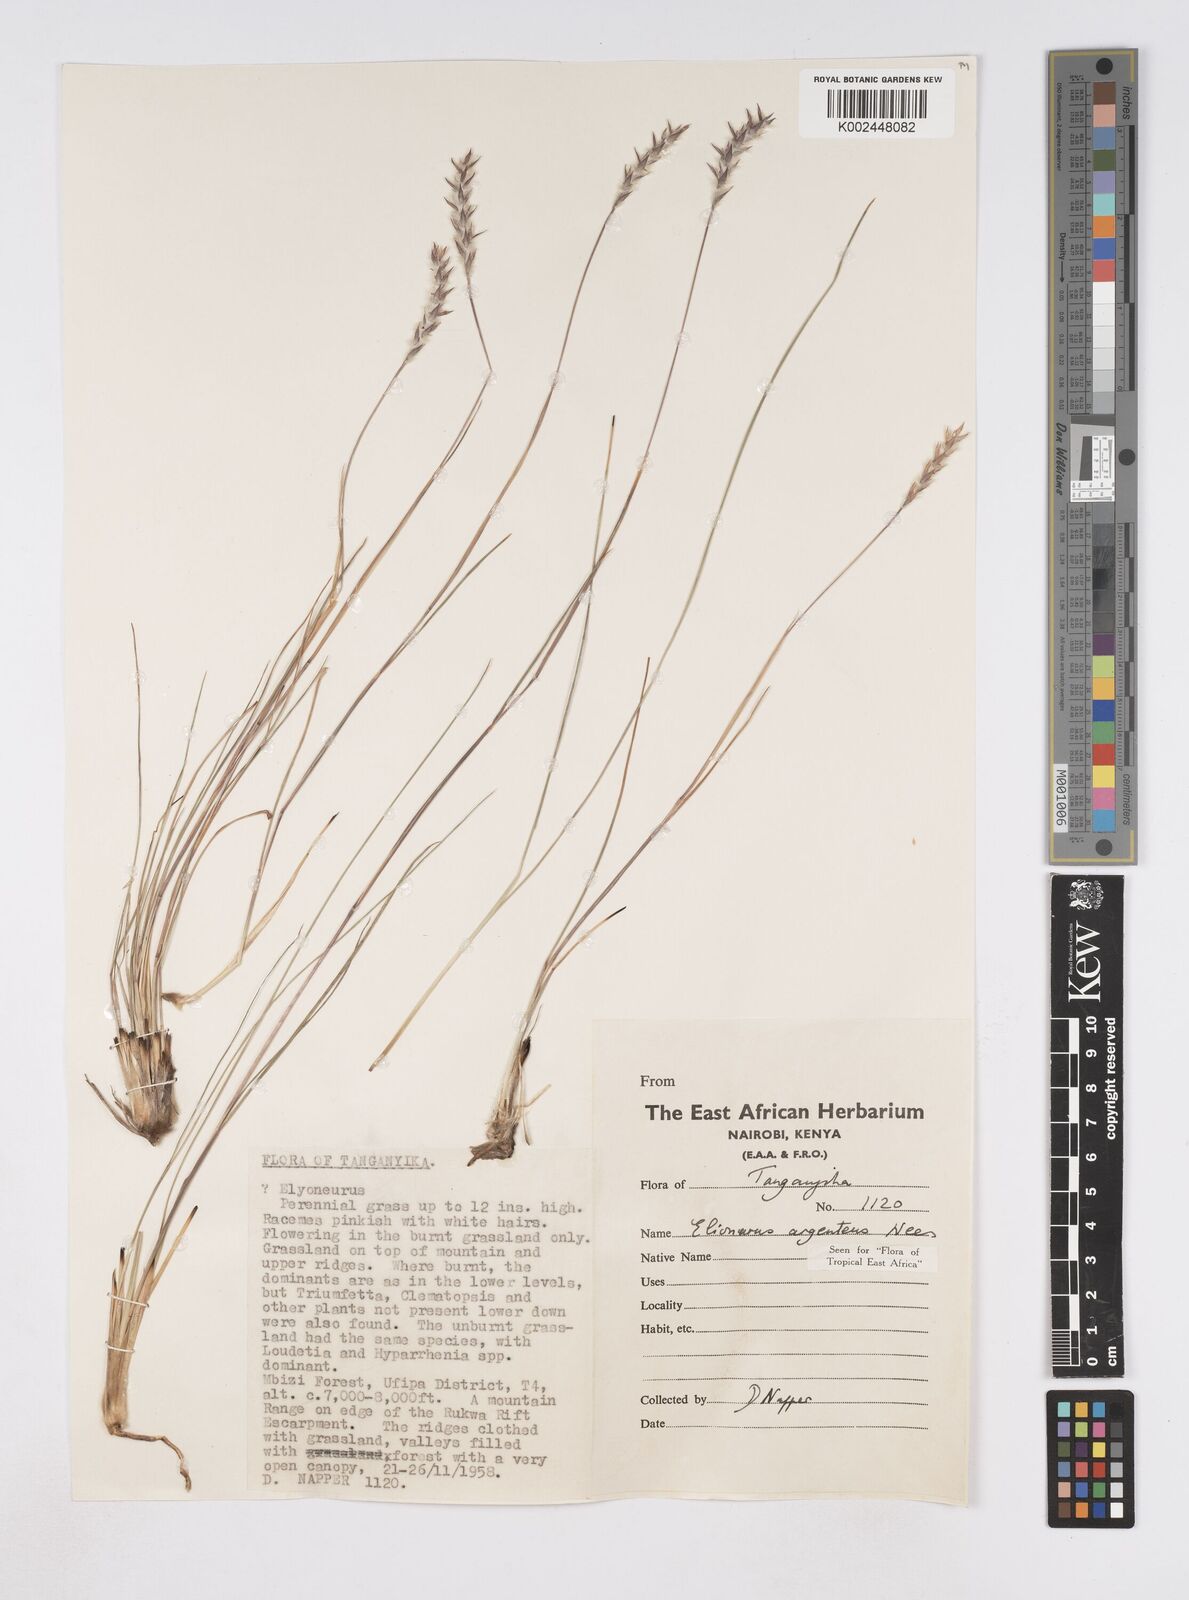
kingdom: Plantae
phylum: Tracheophyta
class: Liliopsida
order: Poales
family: Poaceae
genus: Elionurus
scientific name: Elionurus muticus
